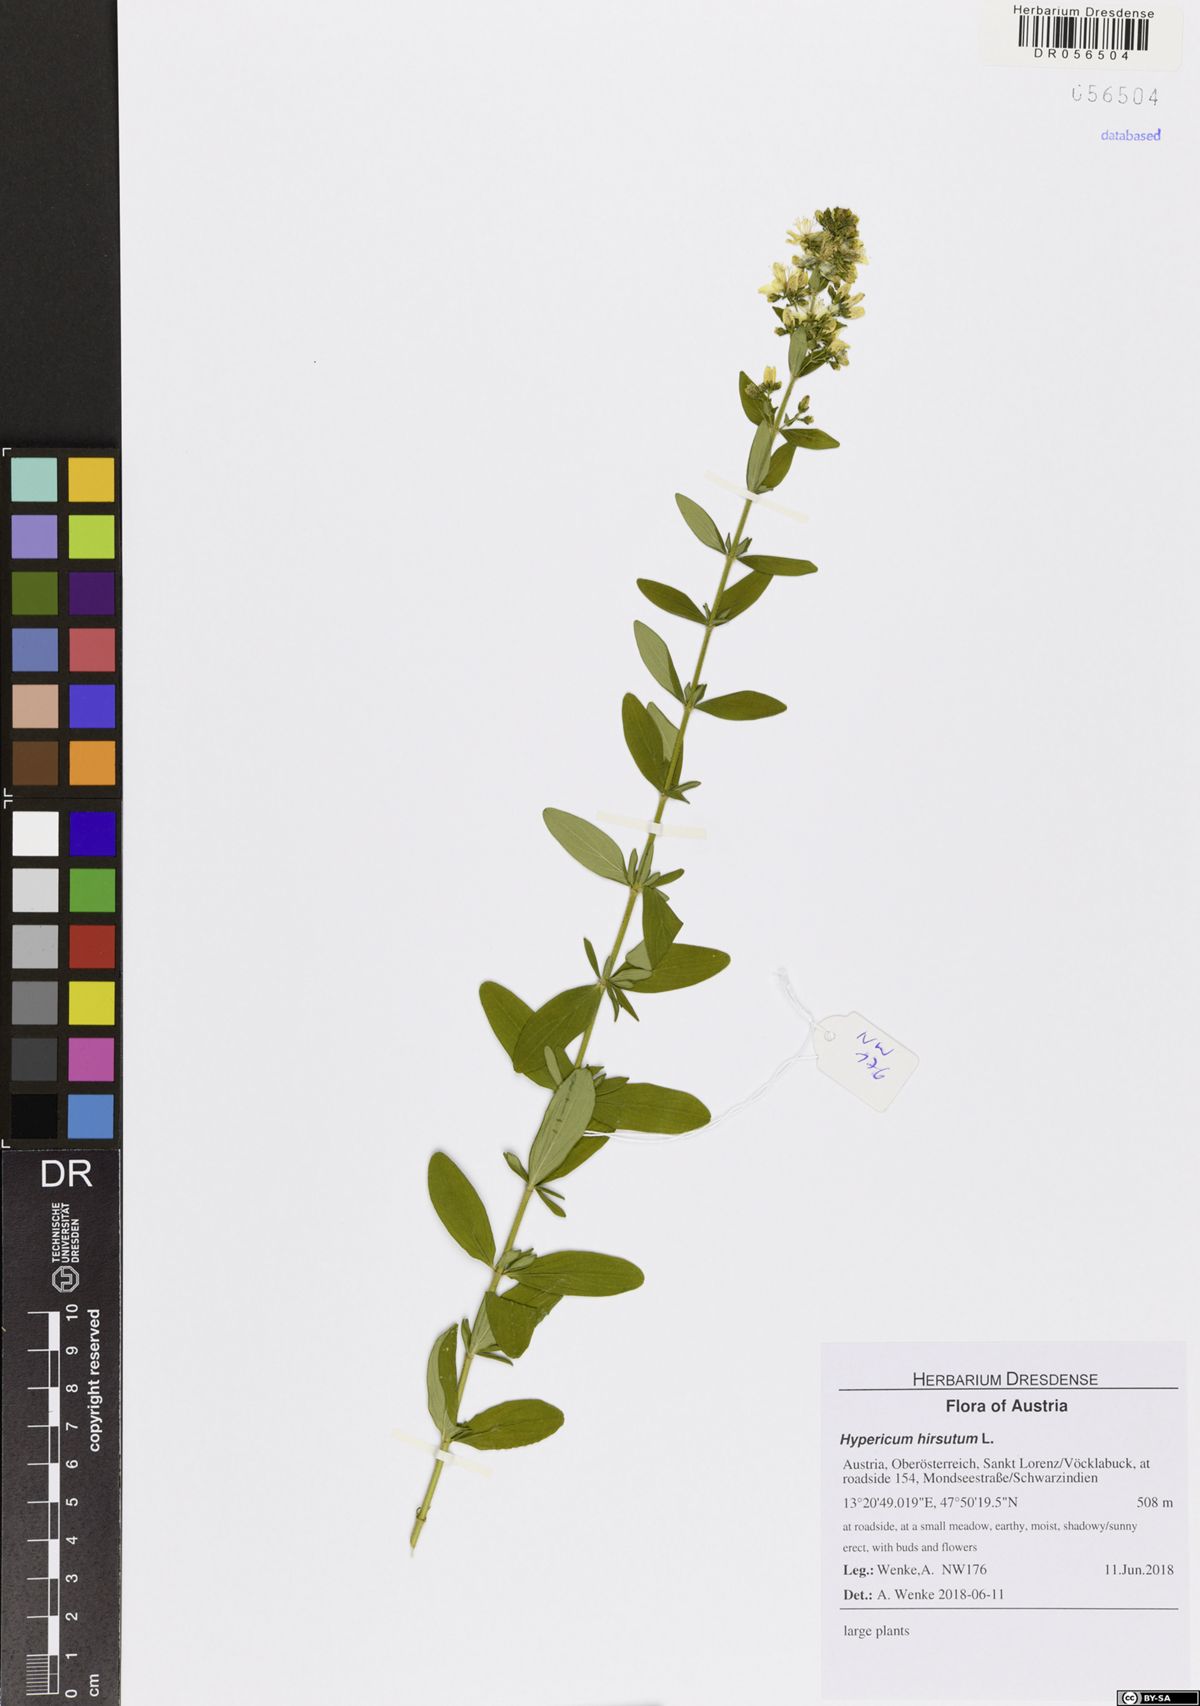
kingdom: Plantae
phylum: Tracheophyta
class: Magnoliopsida
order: Malpighiales
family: Hypericaceae
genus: Hypericum
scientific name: Hypericum hirsutum
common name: Hairy st. john's-wort
